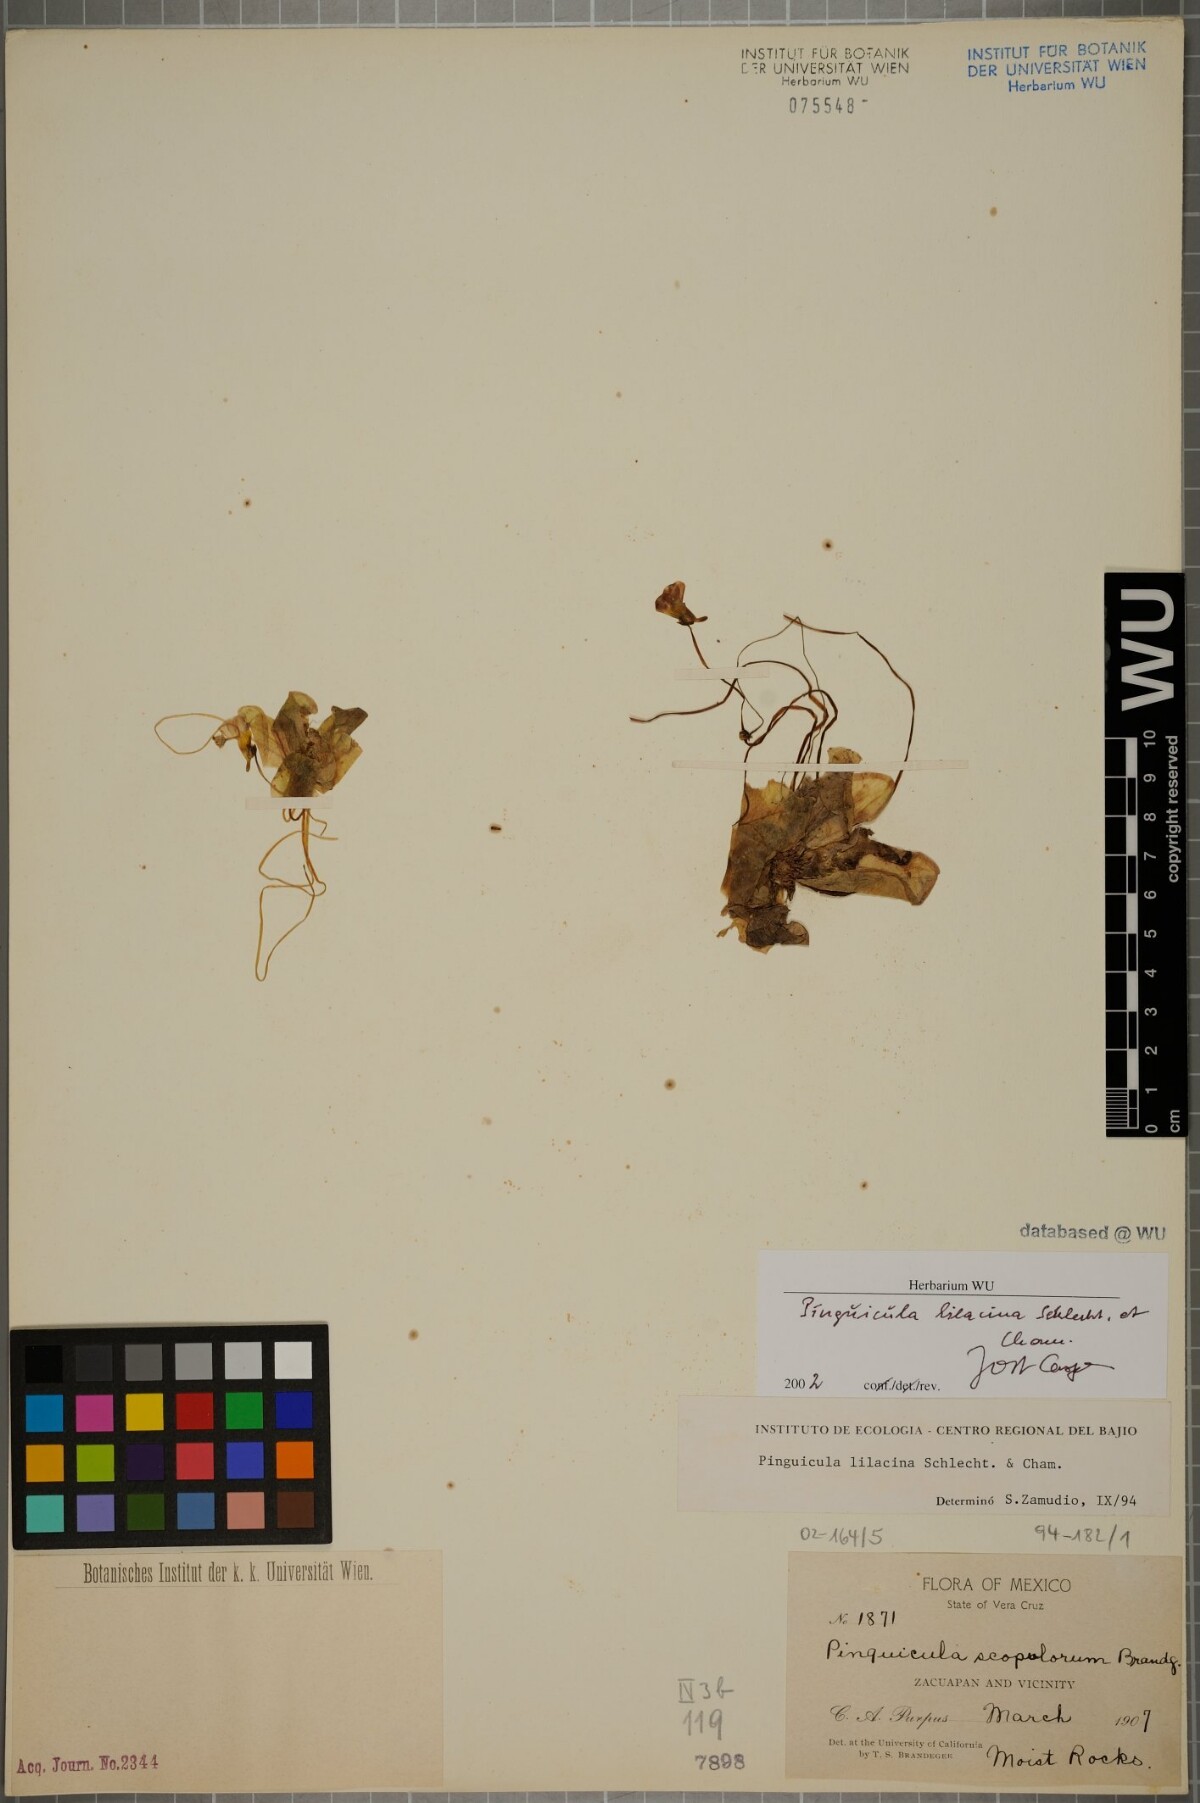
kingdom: Plantae
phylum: Tracheophyta
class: Magnoliopsida
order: Lamiales
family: Lentibulariaceae
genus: Pinguicula
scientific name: Pinguicula lilacina
